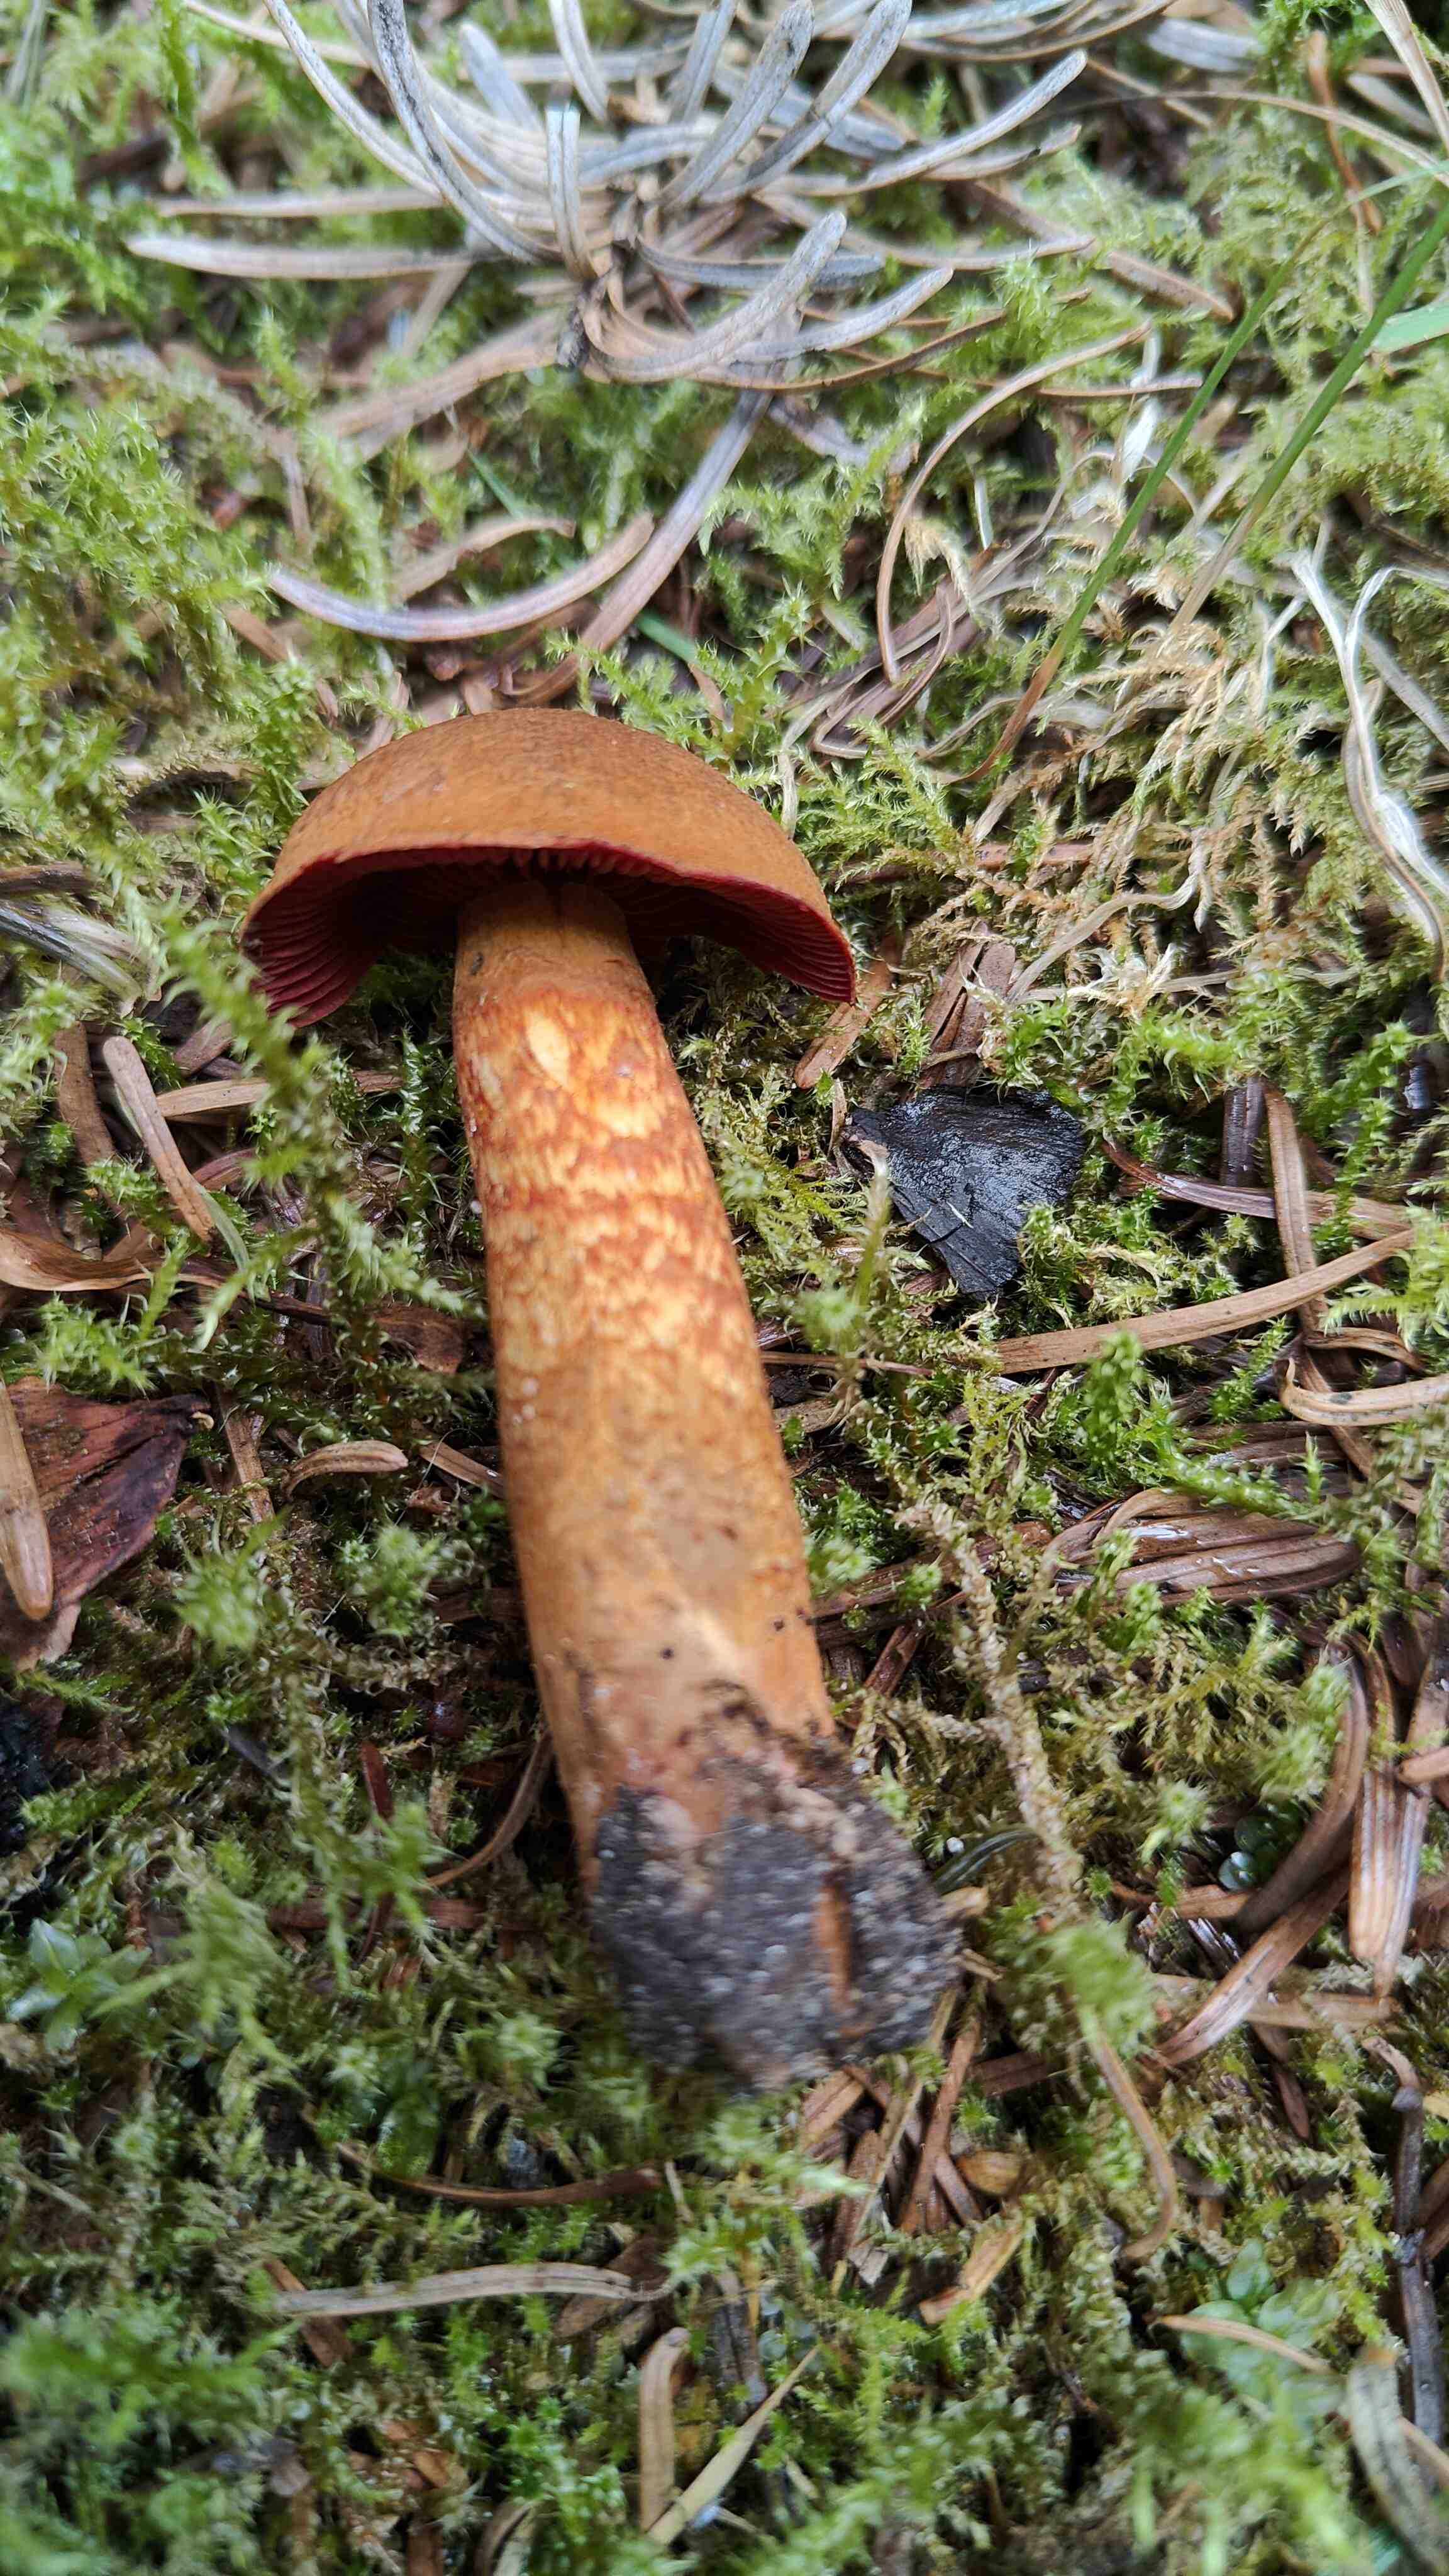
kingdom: Fungi
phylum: Basidiomycota
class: Agaricomycetes
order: Agaricales
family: Cortinariaceae
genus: Cortinarius
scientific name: Cortinarius purpureus
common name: brunrød slørhat
